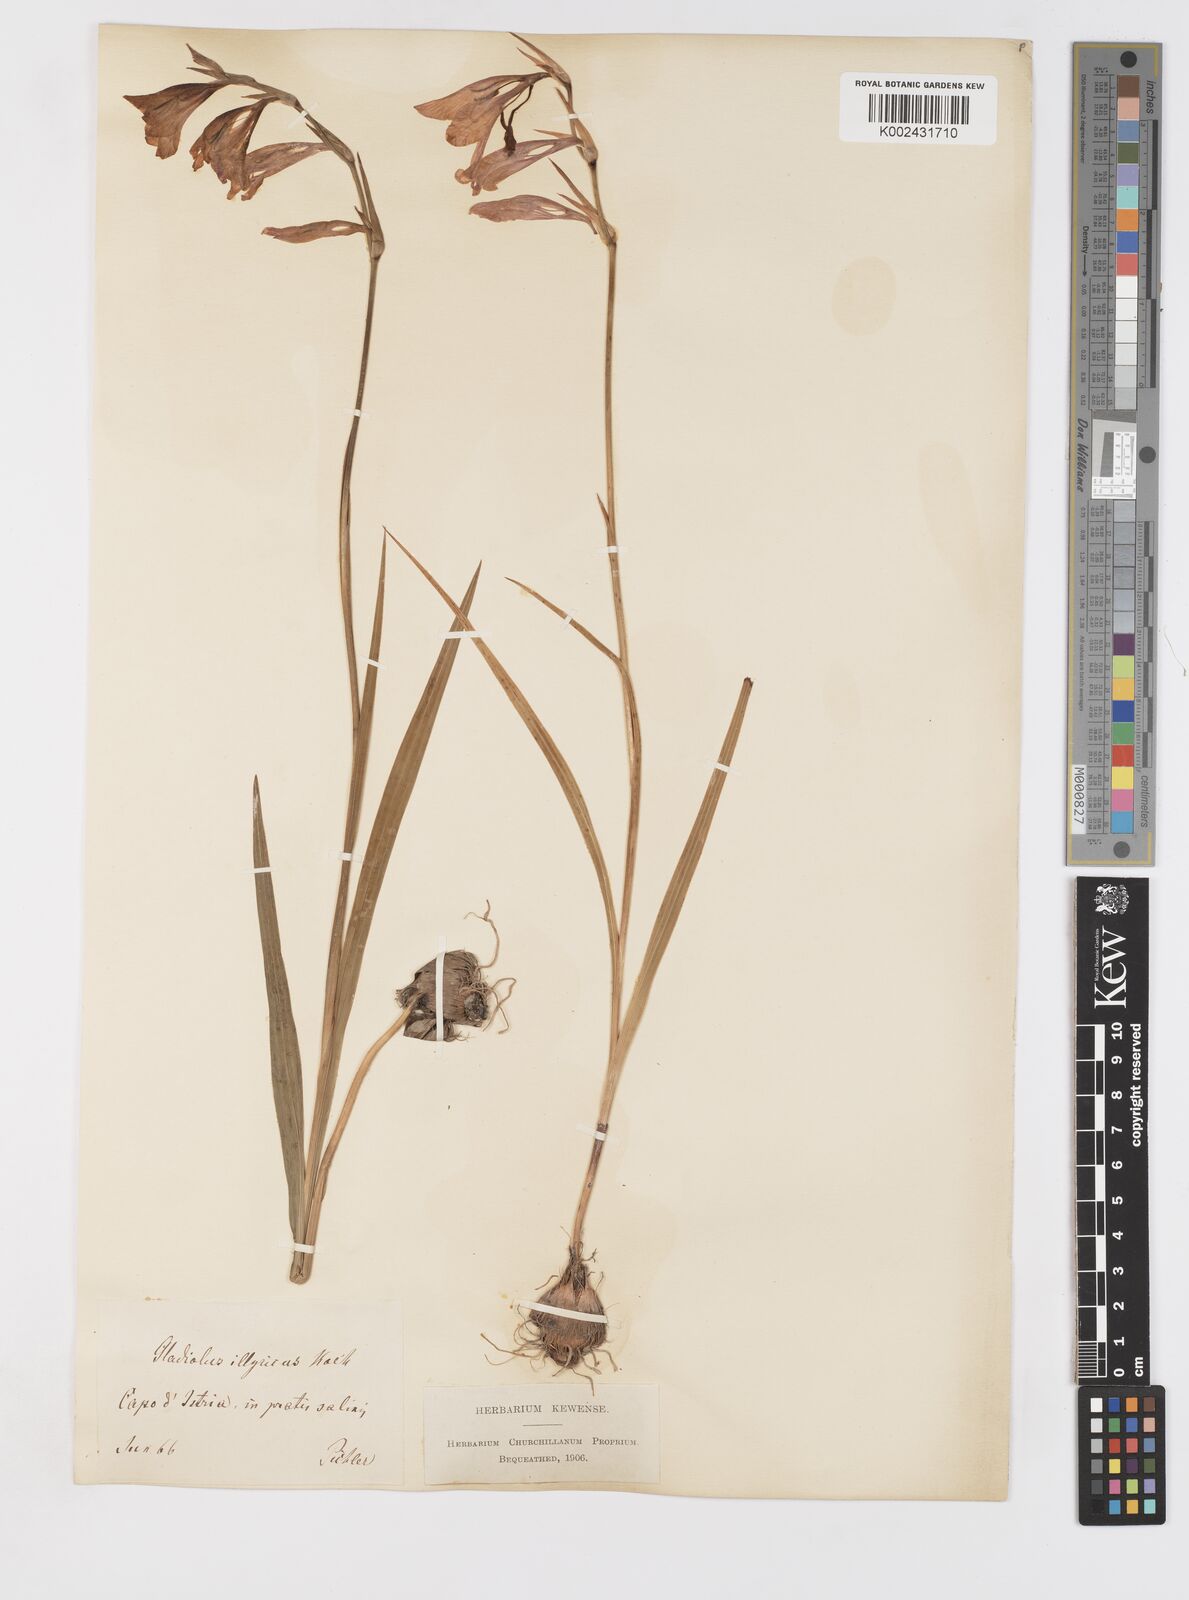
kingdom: Plantae
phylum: Tracheophyta
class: Liliopsida
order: Asparagales
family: Iridaceae
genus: Gladiolus
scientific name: Gladiolus illyricus
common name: Wild gladiolus
